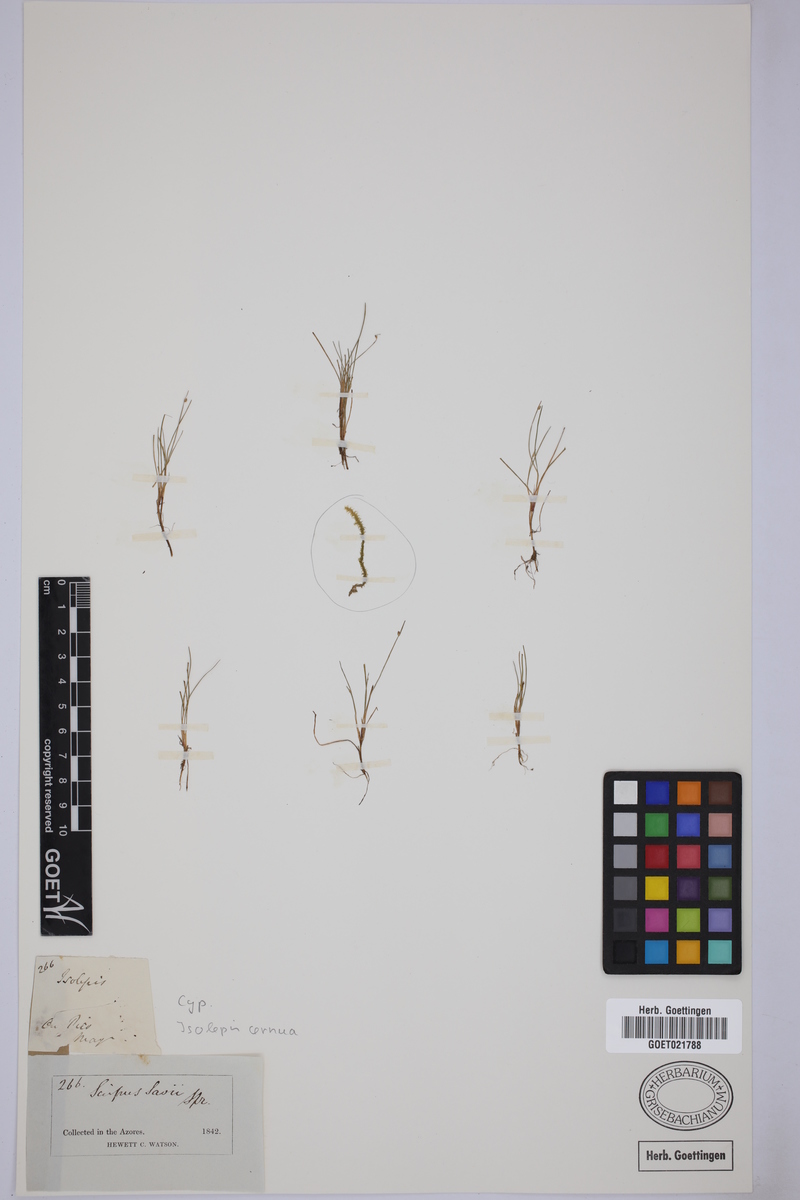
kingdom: Plantae
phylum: Tracheophyta
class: Liliopsida
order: Poales
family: Cyperaceae
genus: Isolepis
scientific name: Isolepis cernua
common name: Slender club-rush
